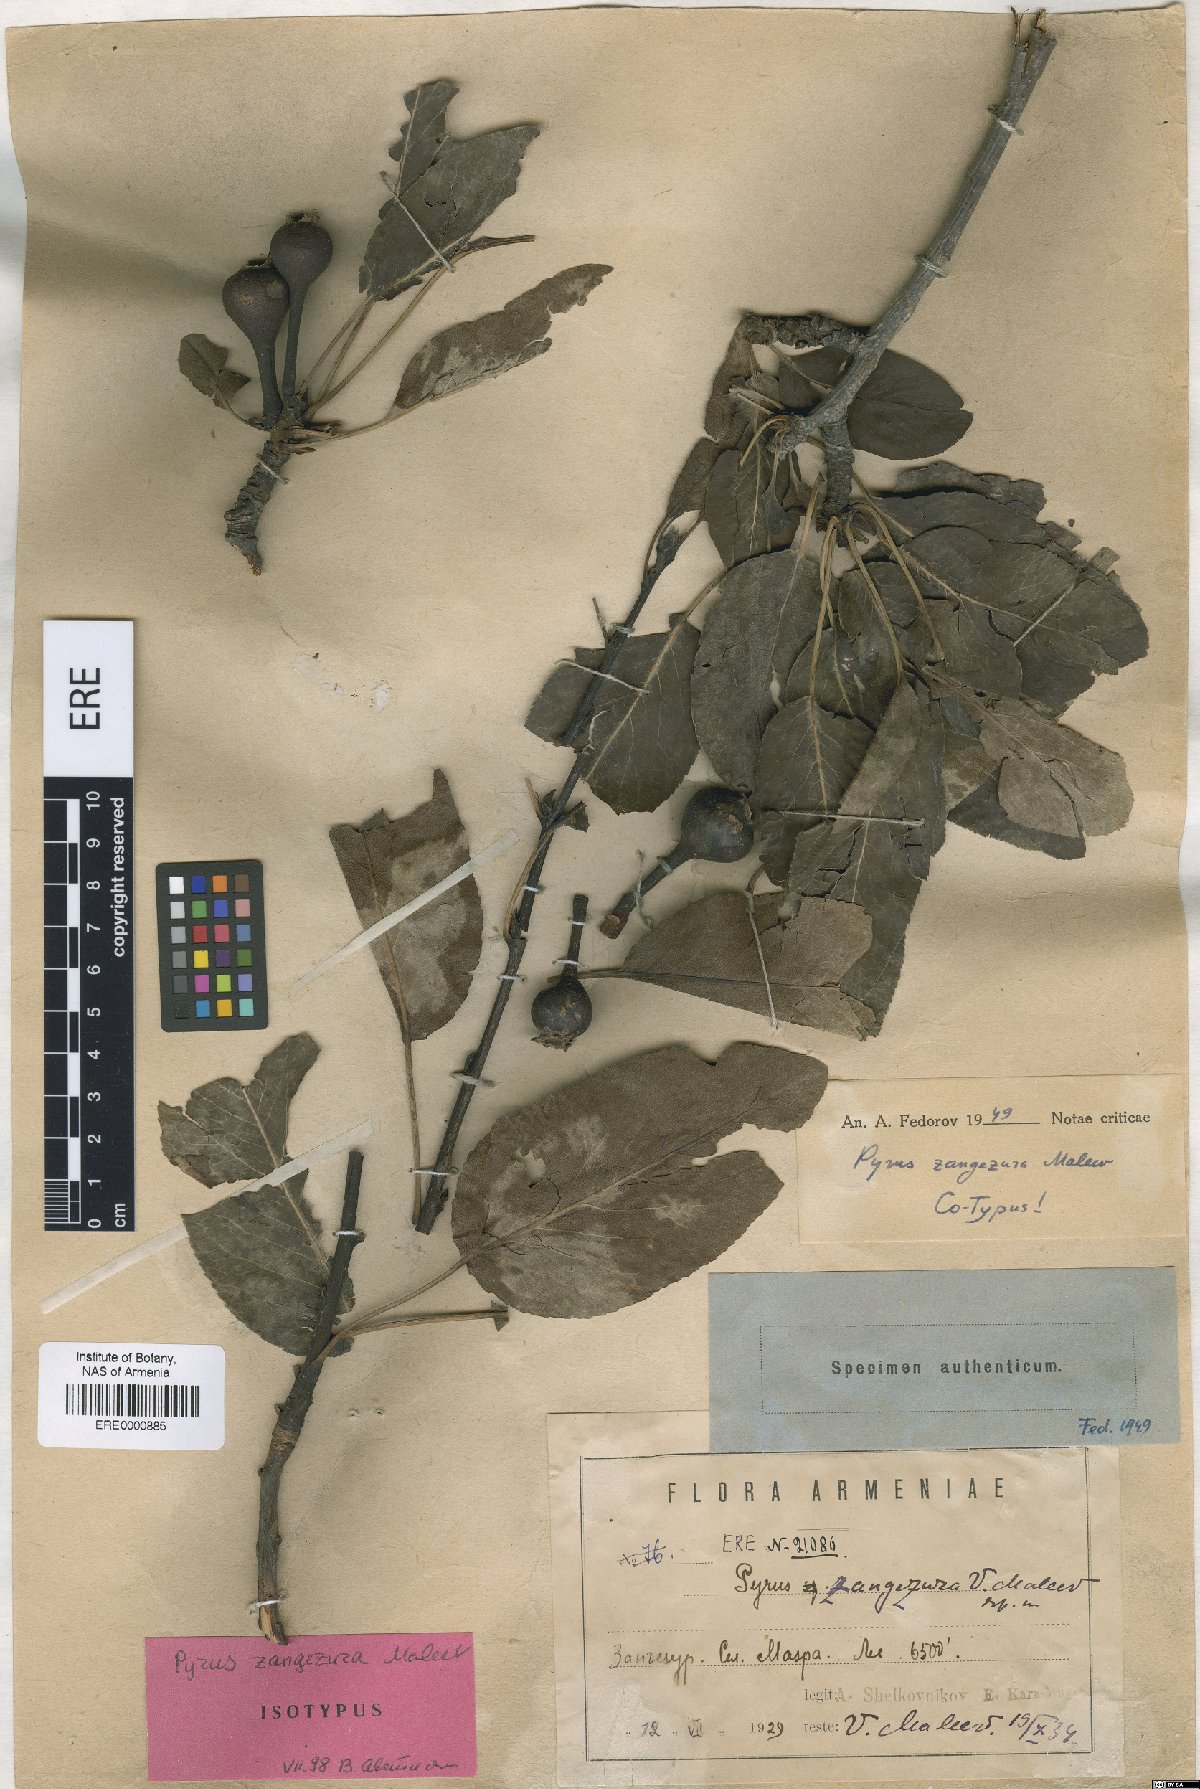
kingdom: Plantae
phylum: Tracheophyta
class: Magnoliopsida
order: Rosales
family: Rosaceae
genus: Pyrus
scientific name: Pyrus zangezura
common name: Zangezurian pear
